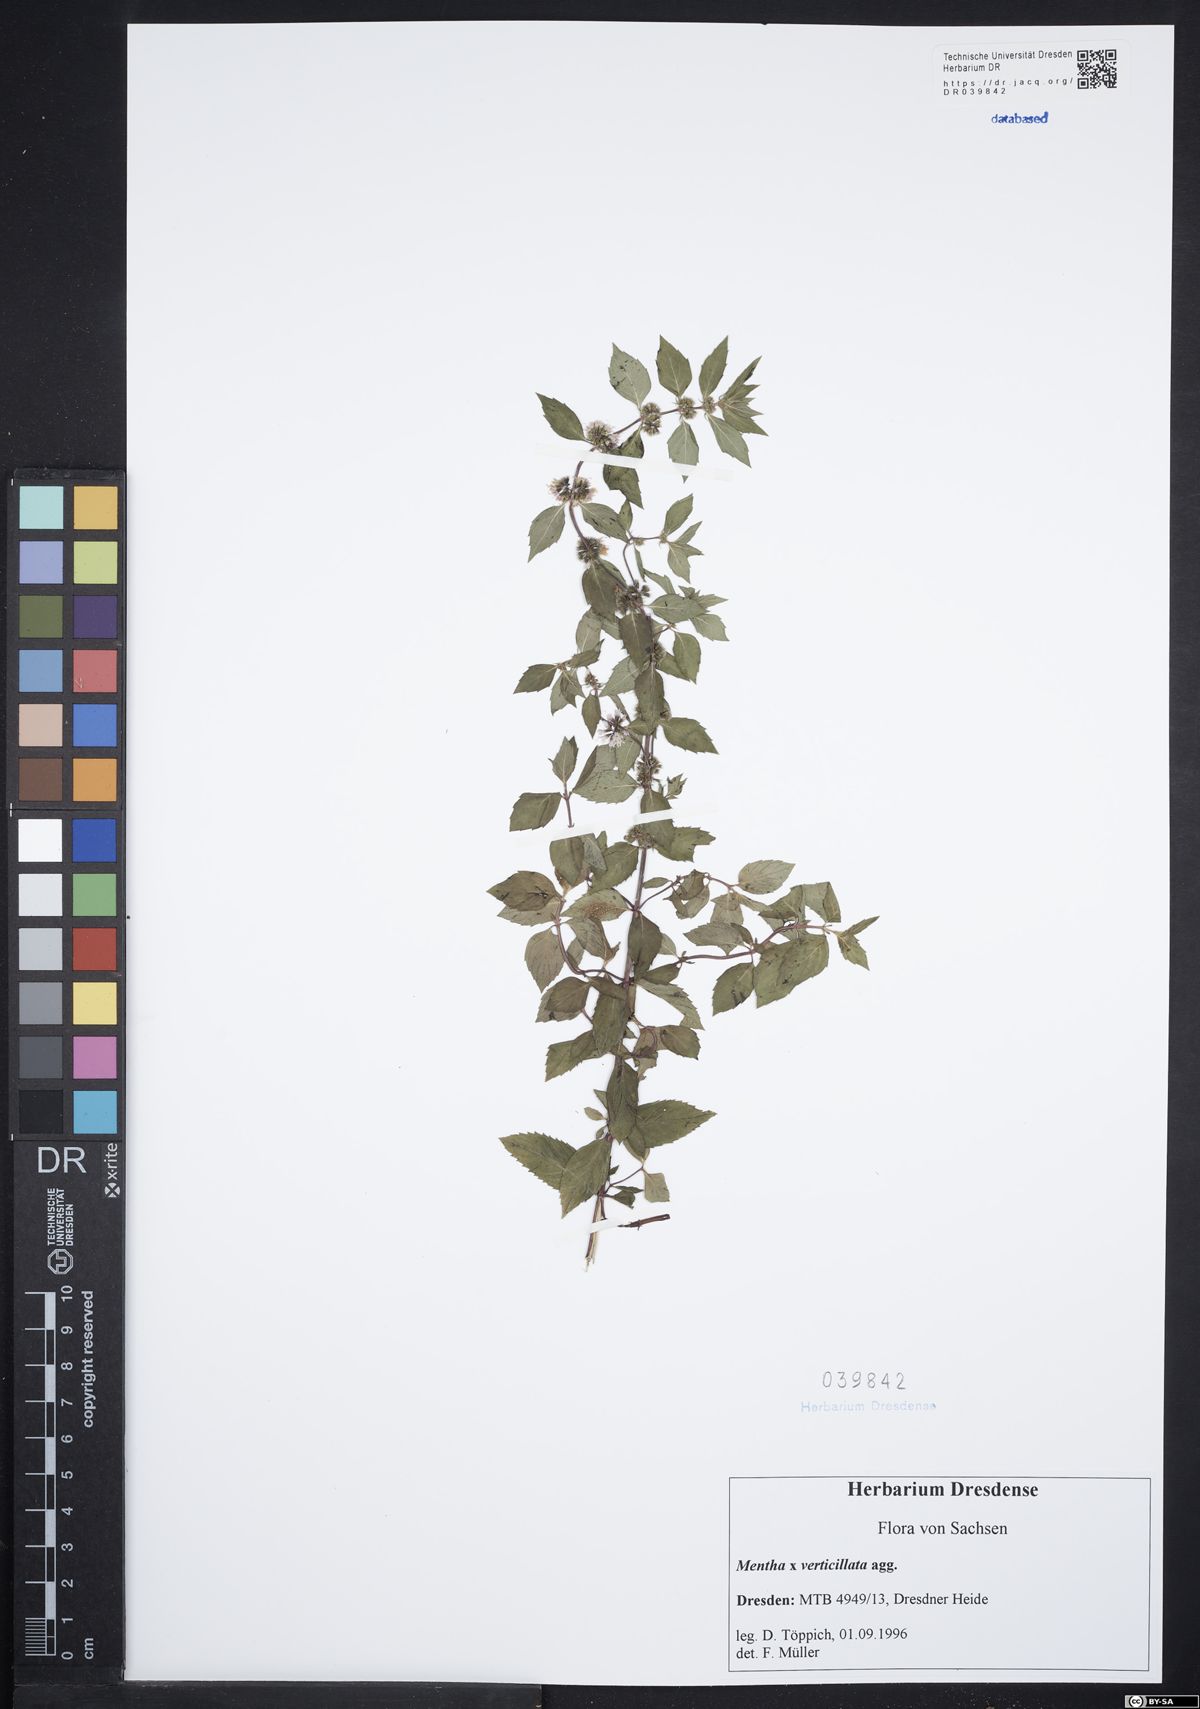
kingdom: Plantae
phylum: Tracheophyta
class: Magnoliopsida
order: Lamiales
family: Lamiaceae
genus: Mentha
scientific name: Mentha verticillata
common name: Mint
